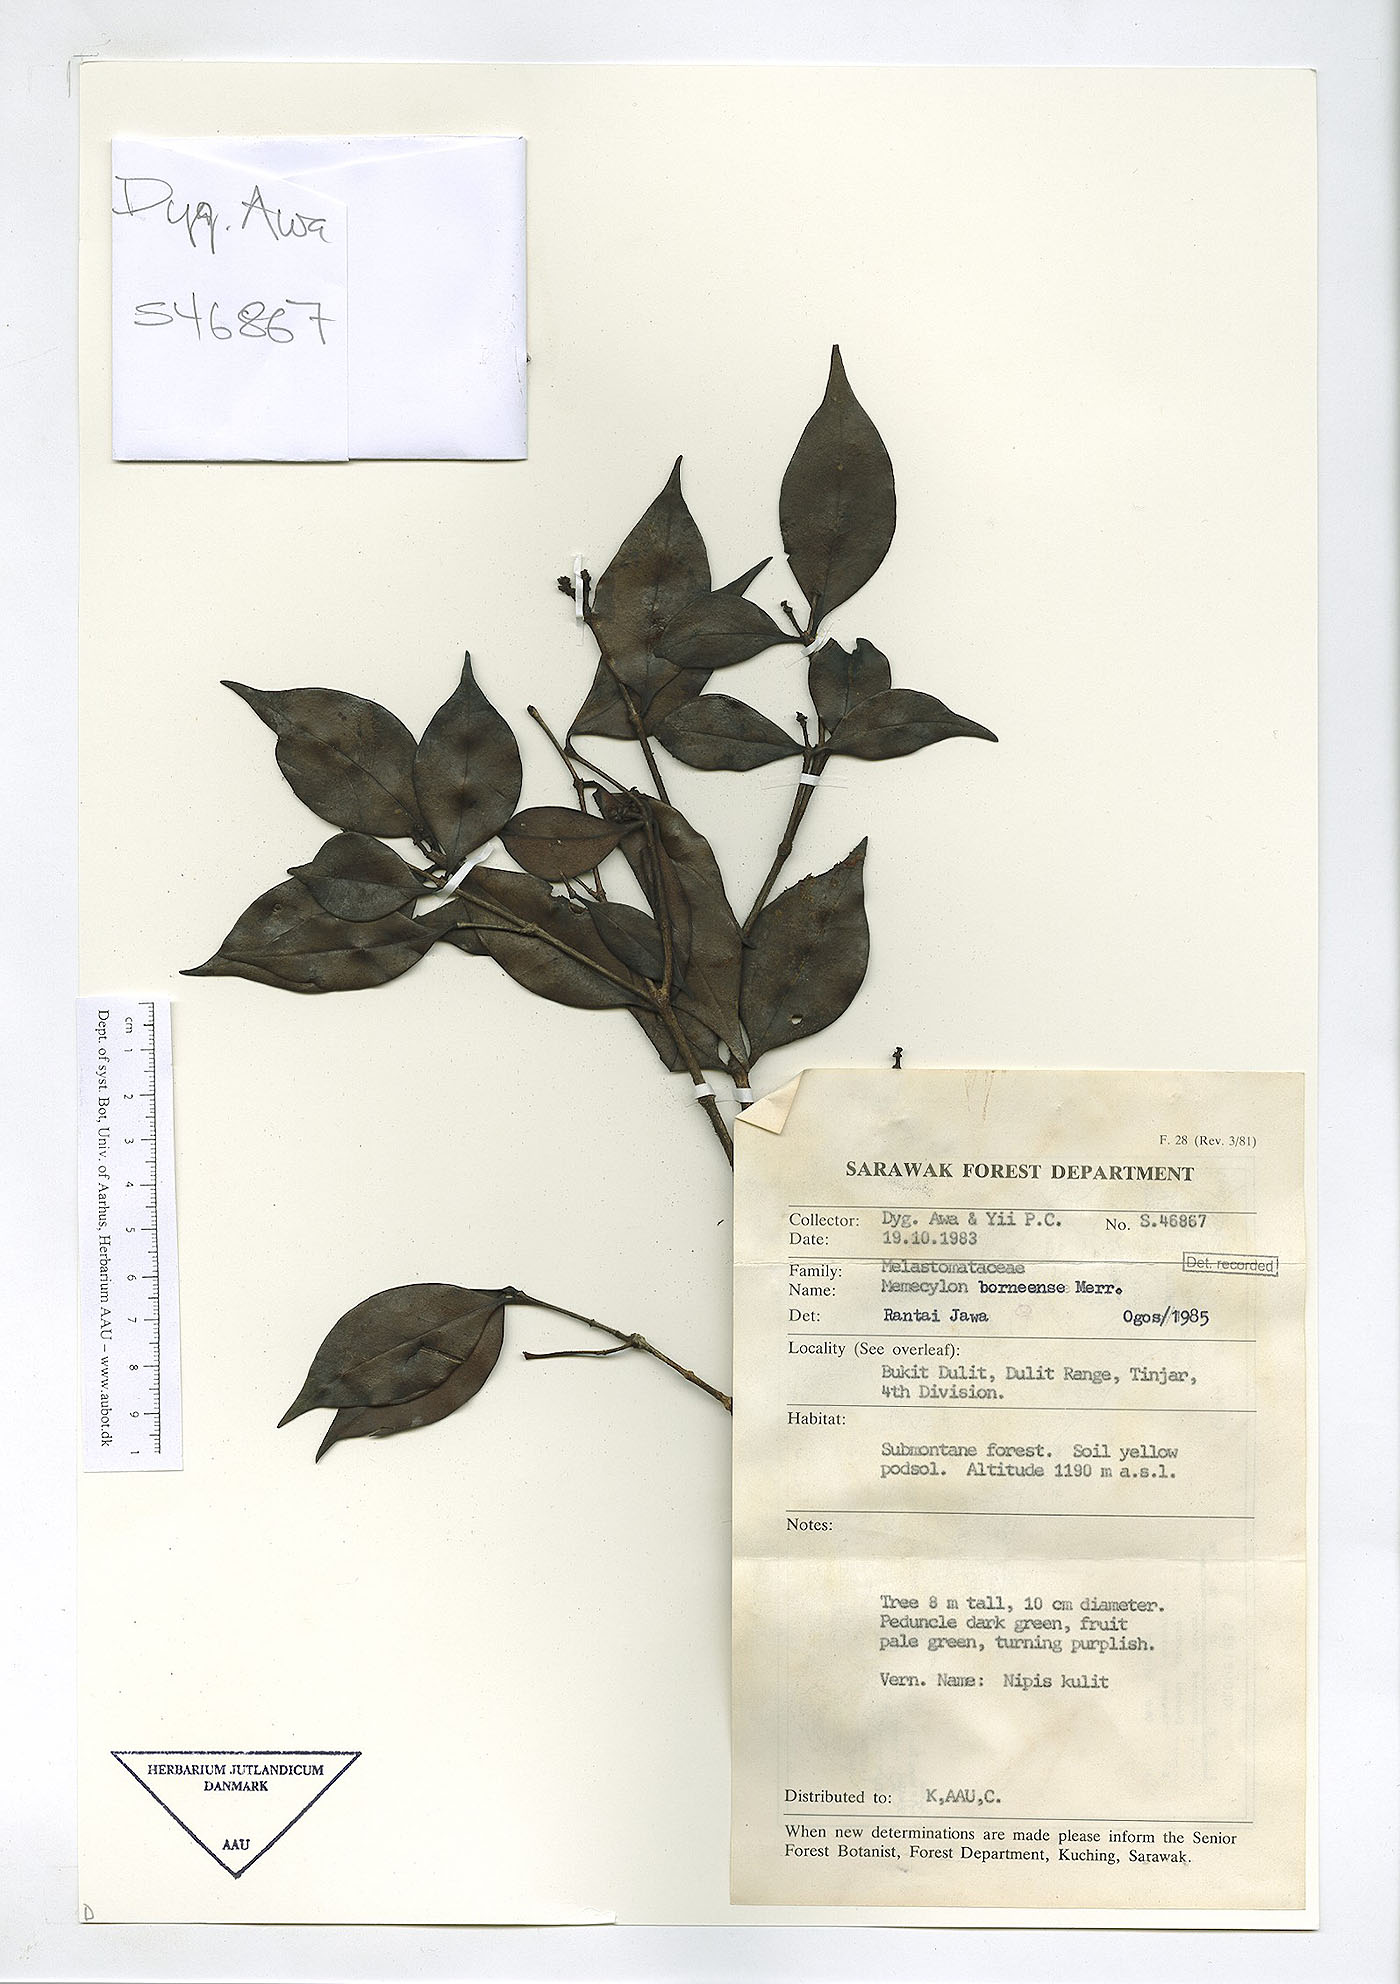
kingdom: Plantae
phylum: Tracheophyta
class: Magnoliopsida
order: Myrtales
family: Melastomataceae
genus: Memecylon
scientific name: Memecylon borneense
